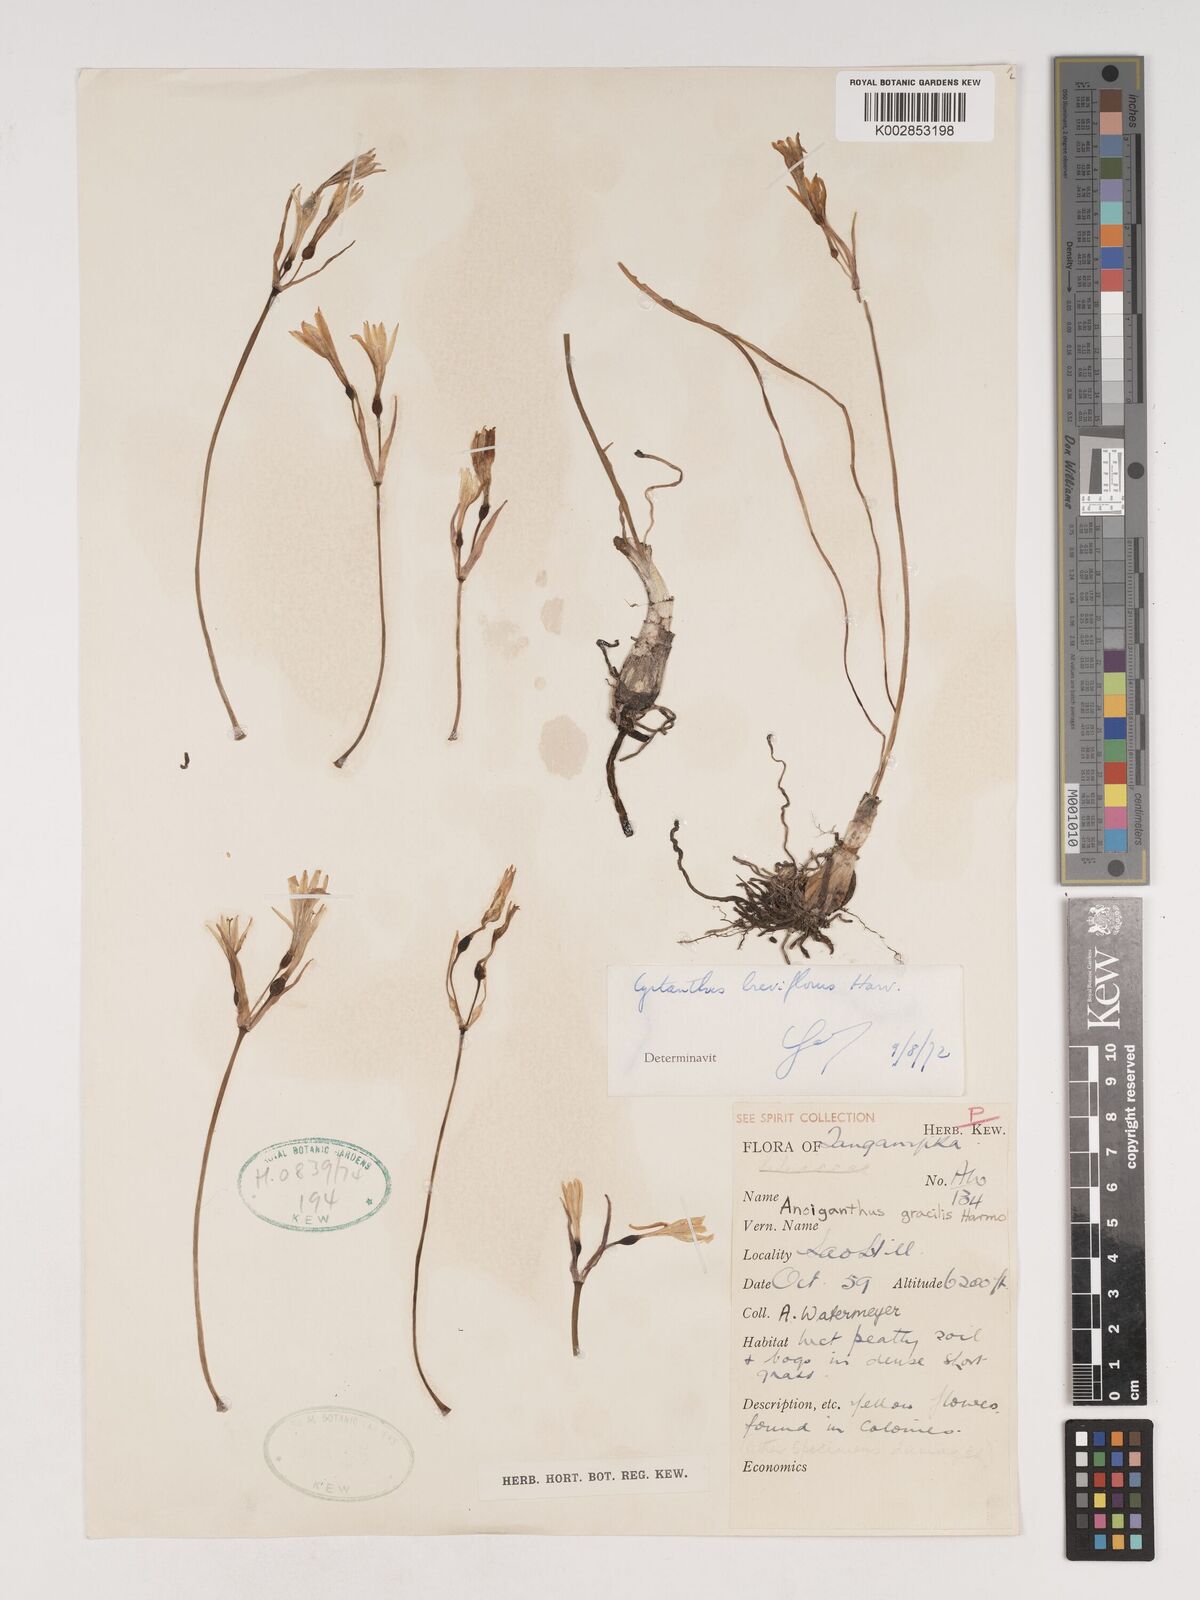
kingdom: Plantae
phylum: Tracheophyta
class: Liliopsida
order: Asparagales
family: Amaryllidaceae
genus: Cyrtanthus
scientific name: Cyrtanthus breviflorus
